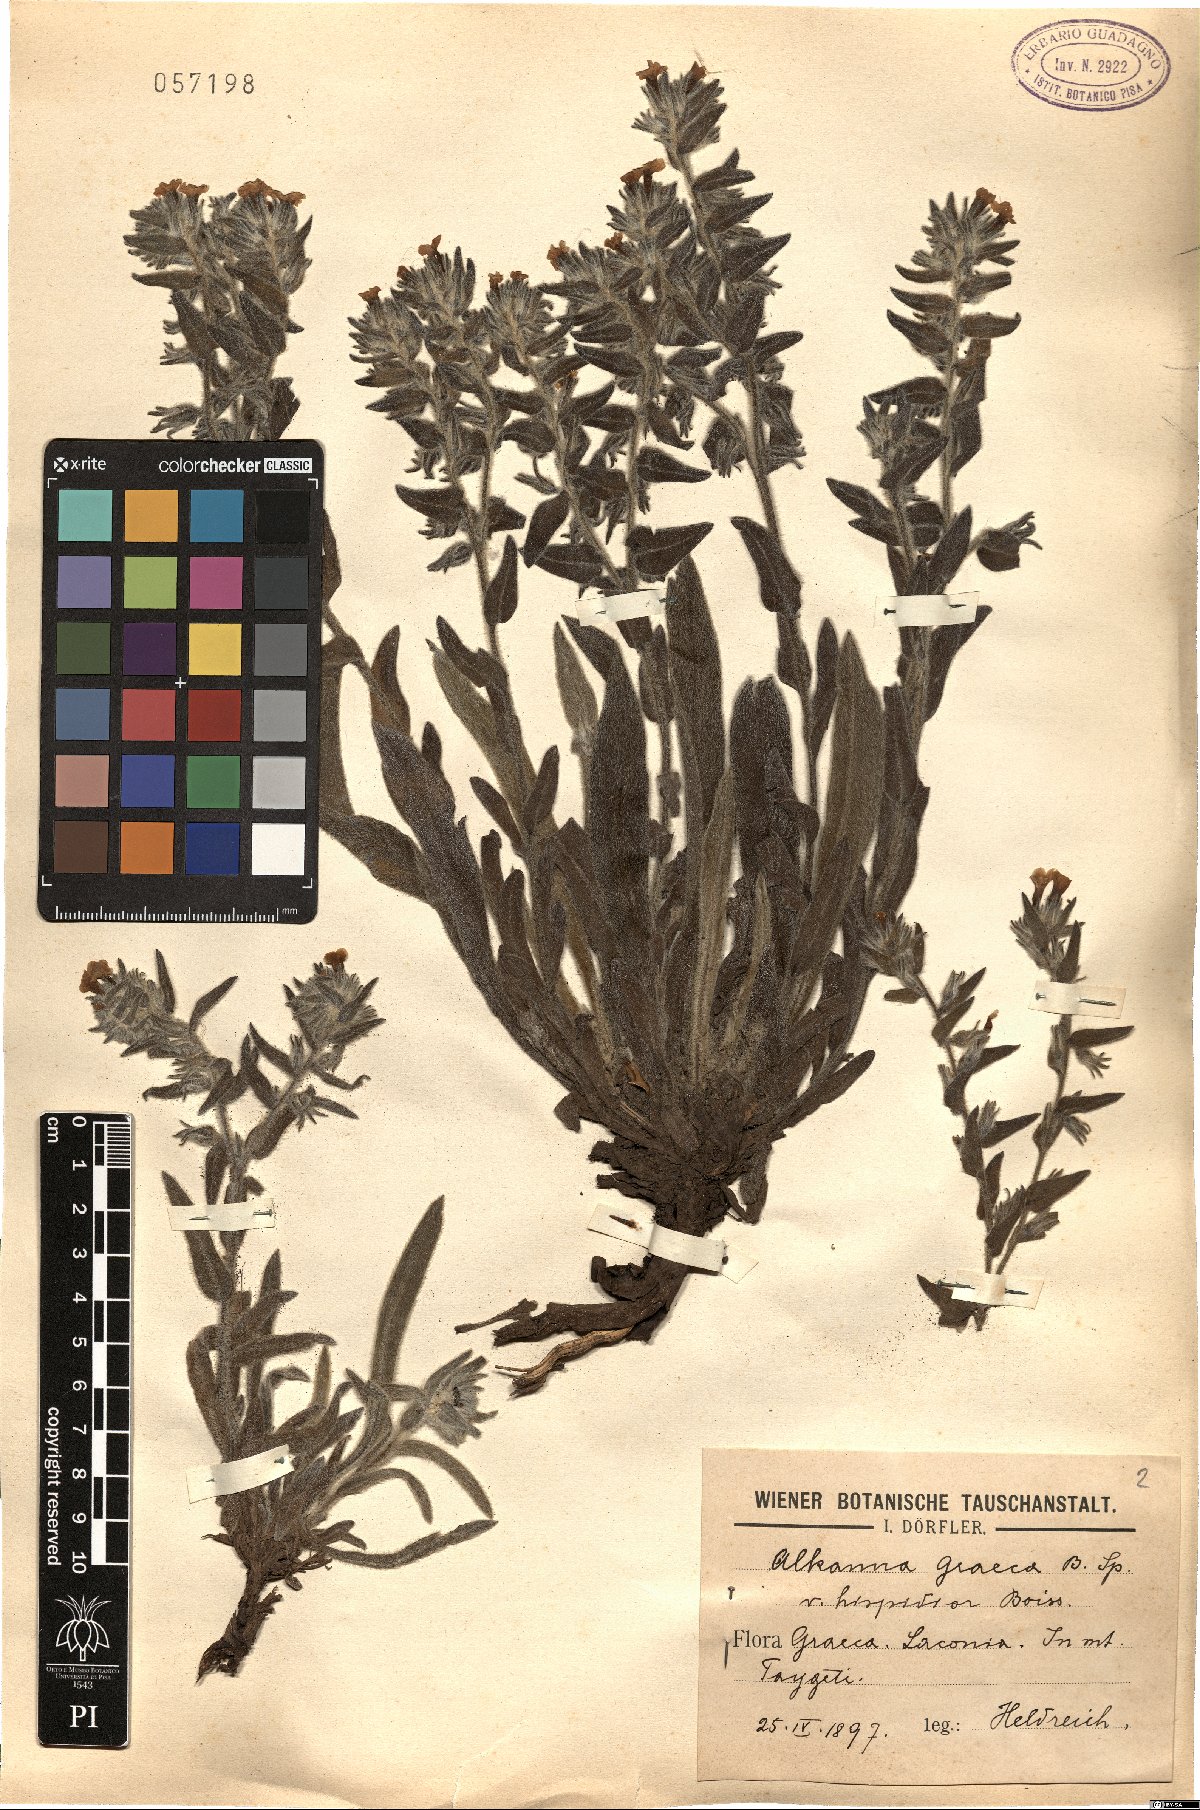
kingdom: Plantae
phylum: Tracheophyta
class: Magnoliopsida
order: Boraginales
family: Boraginaceae
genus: Alkanna
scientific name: Alkanna graeca
